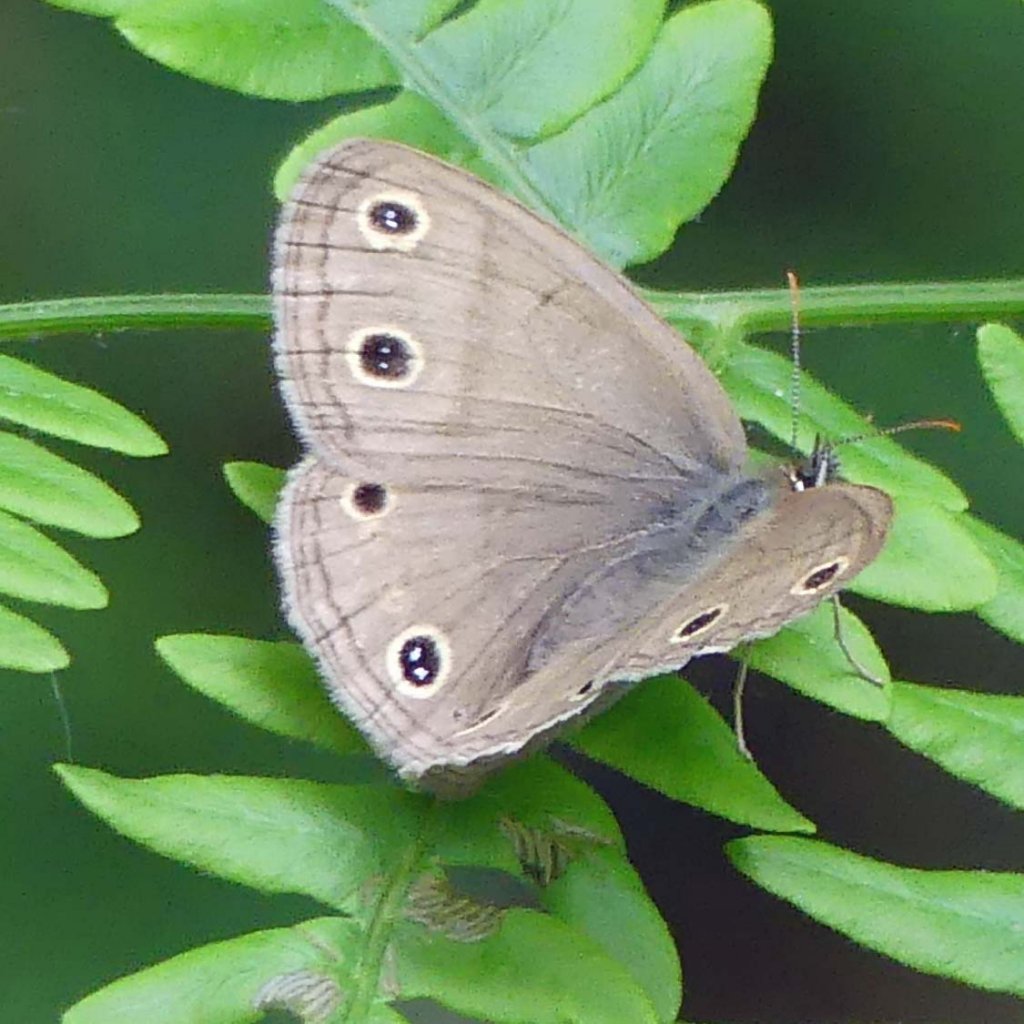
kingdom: Animalia
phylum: Arthropoda
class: Insecta
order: Lepidoptera
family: Nymphalidae
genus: Euptychia
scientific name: Euptychia cymela
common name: Little Wood Satyr
